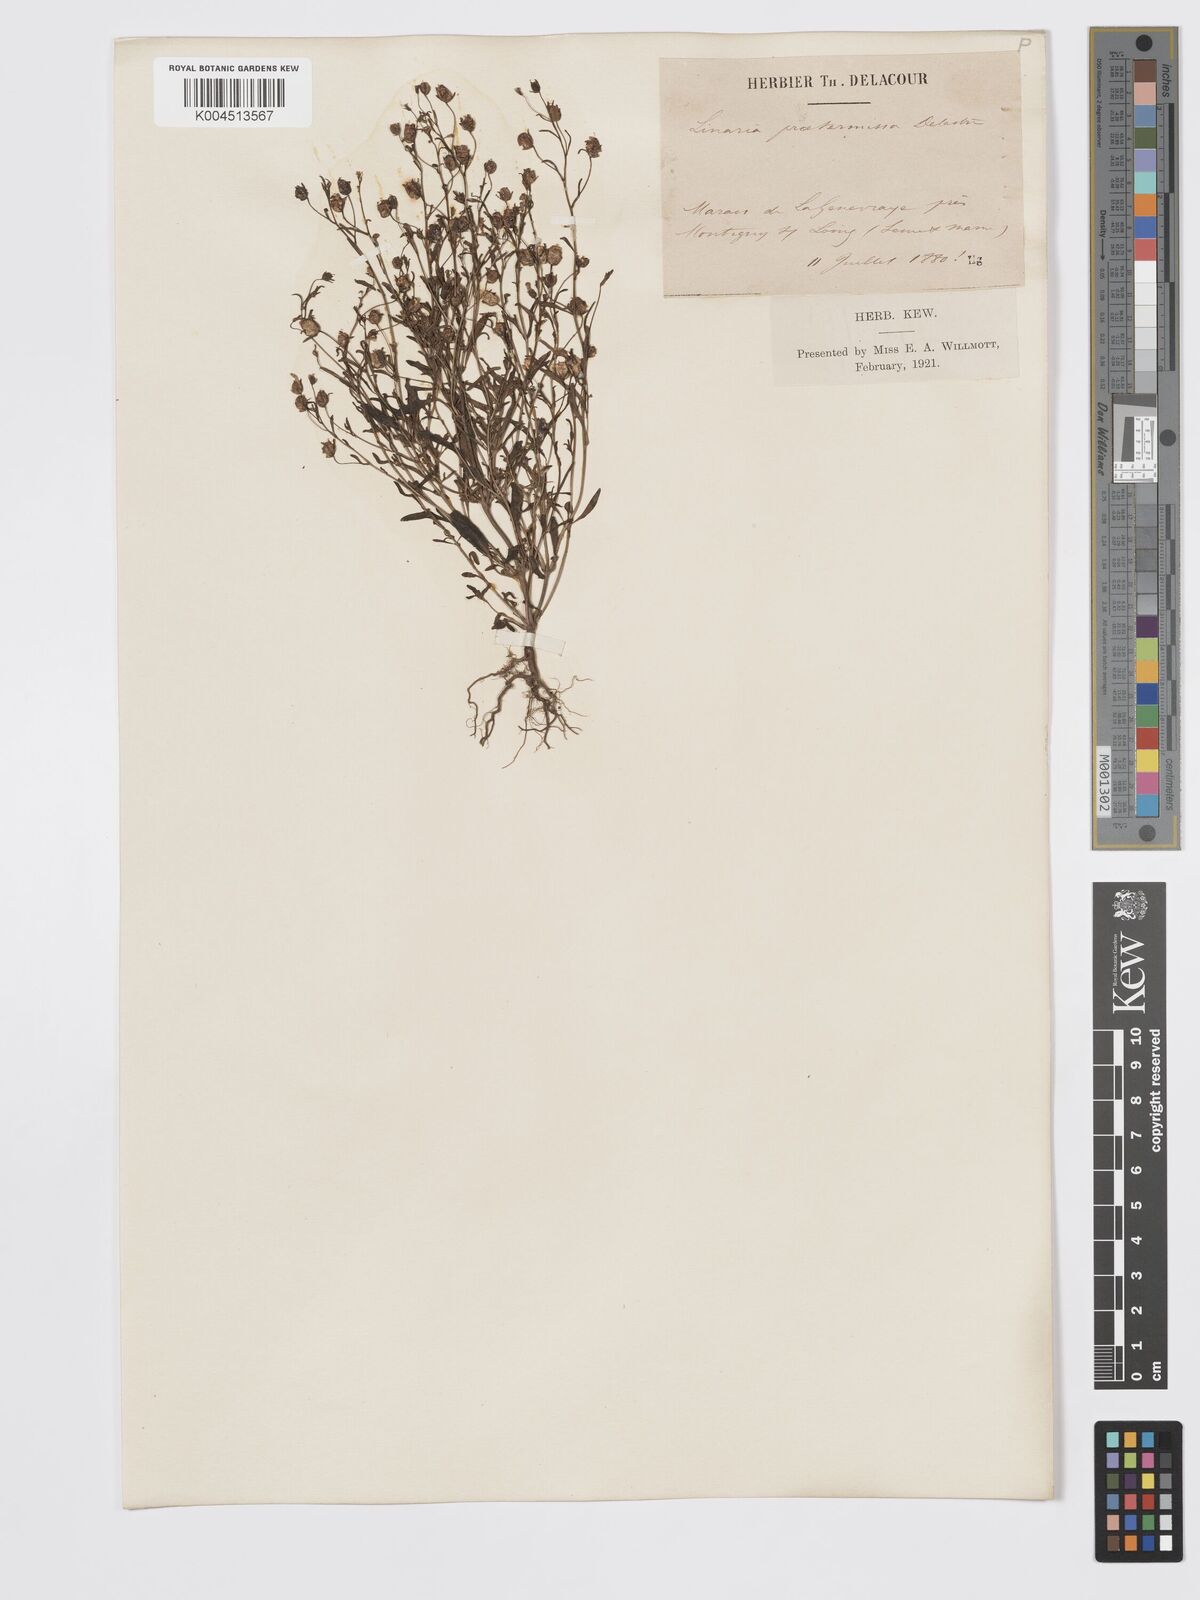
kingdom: Plantae
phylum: Tracheophyta
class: Magnoliopsida
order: Lamiales
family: Plantaginaceae
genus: Chaenorhinum
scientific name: Chaenorhinum minus
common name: Dwarf snapdragon
